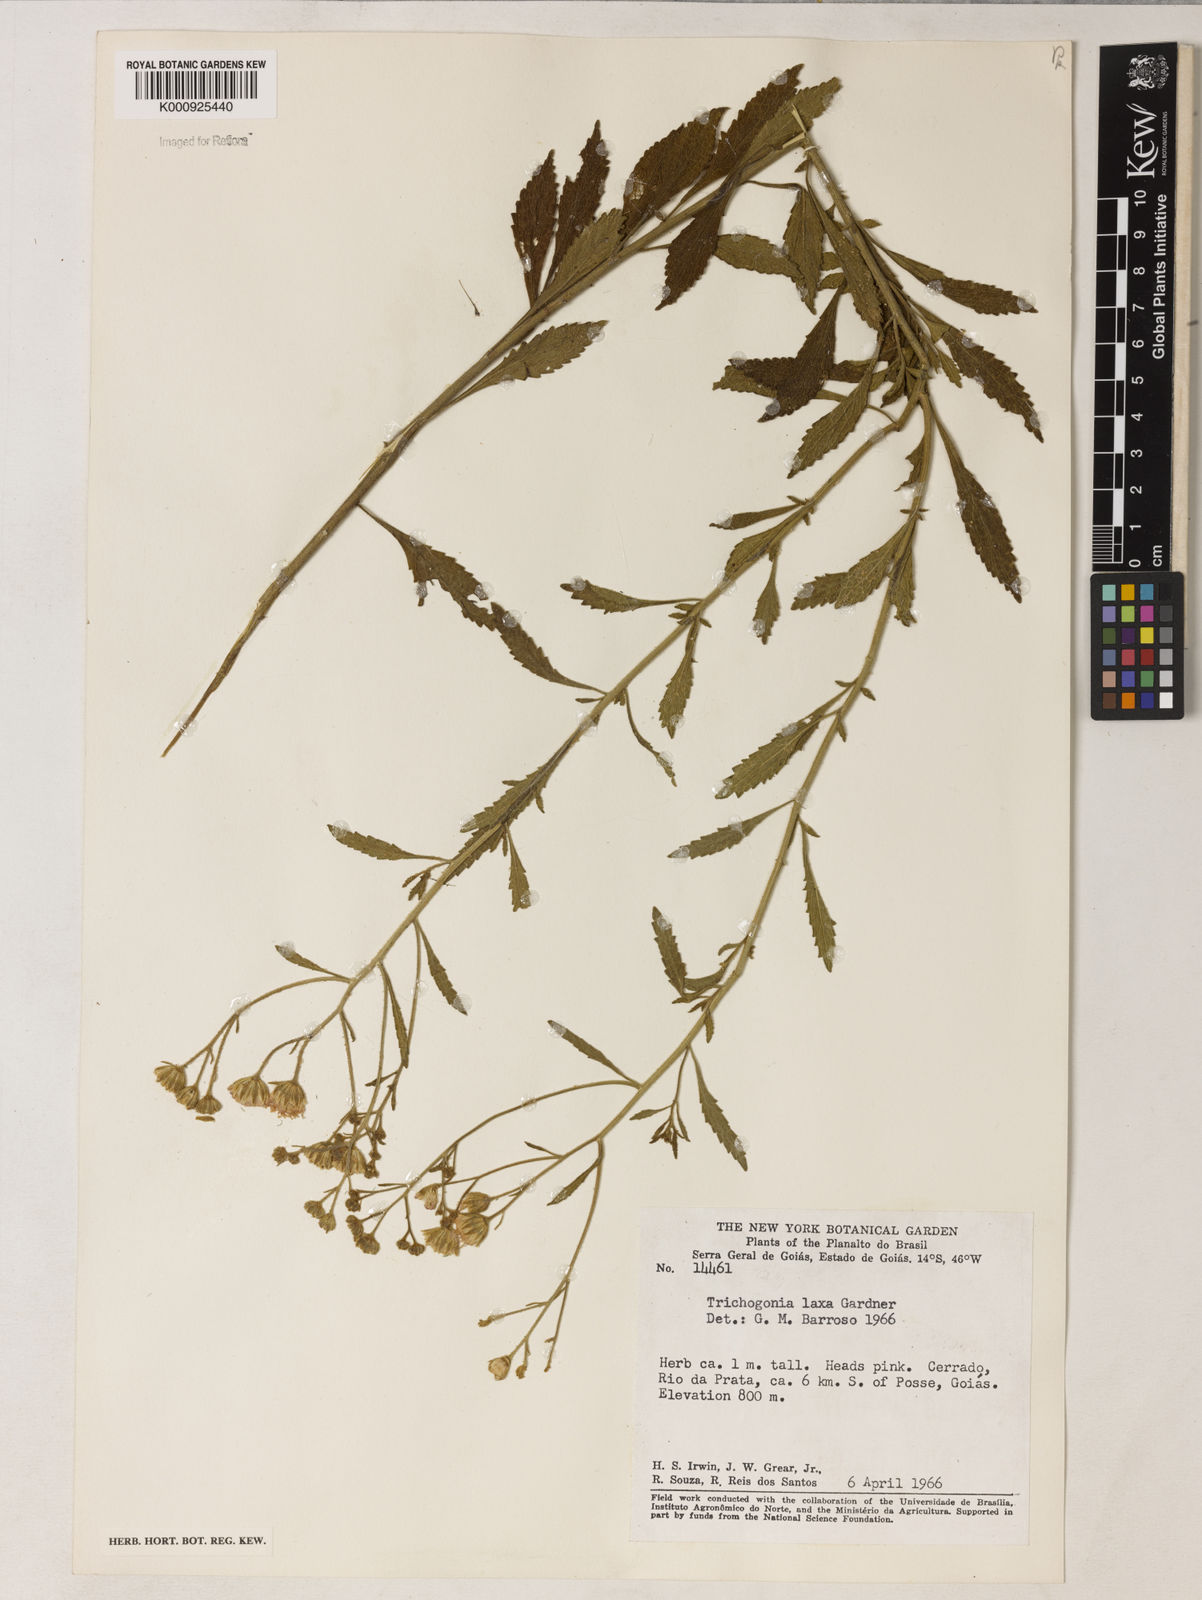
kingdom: Plantae
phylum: Tracheophyta
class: Magnoliopsida
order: Asterales
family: Asteraceae
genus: Trichogonia
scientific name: Trichogonia laxa
